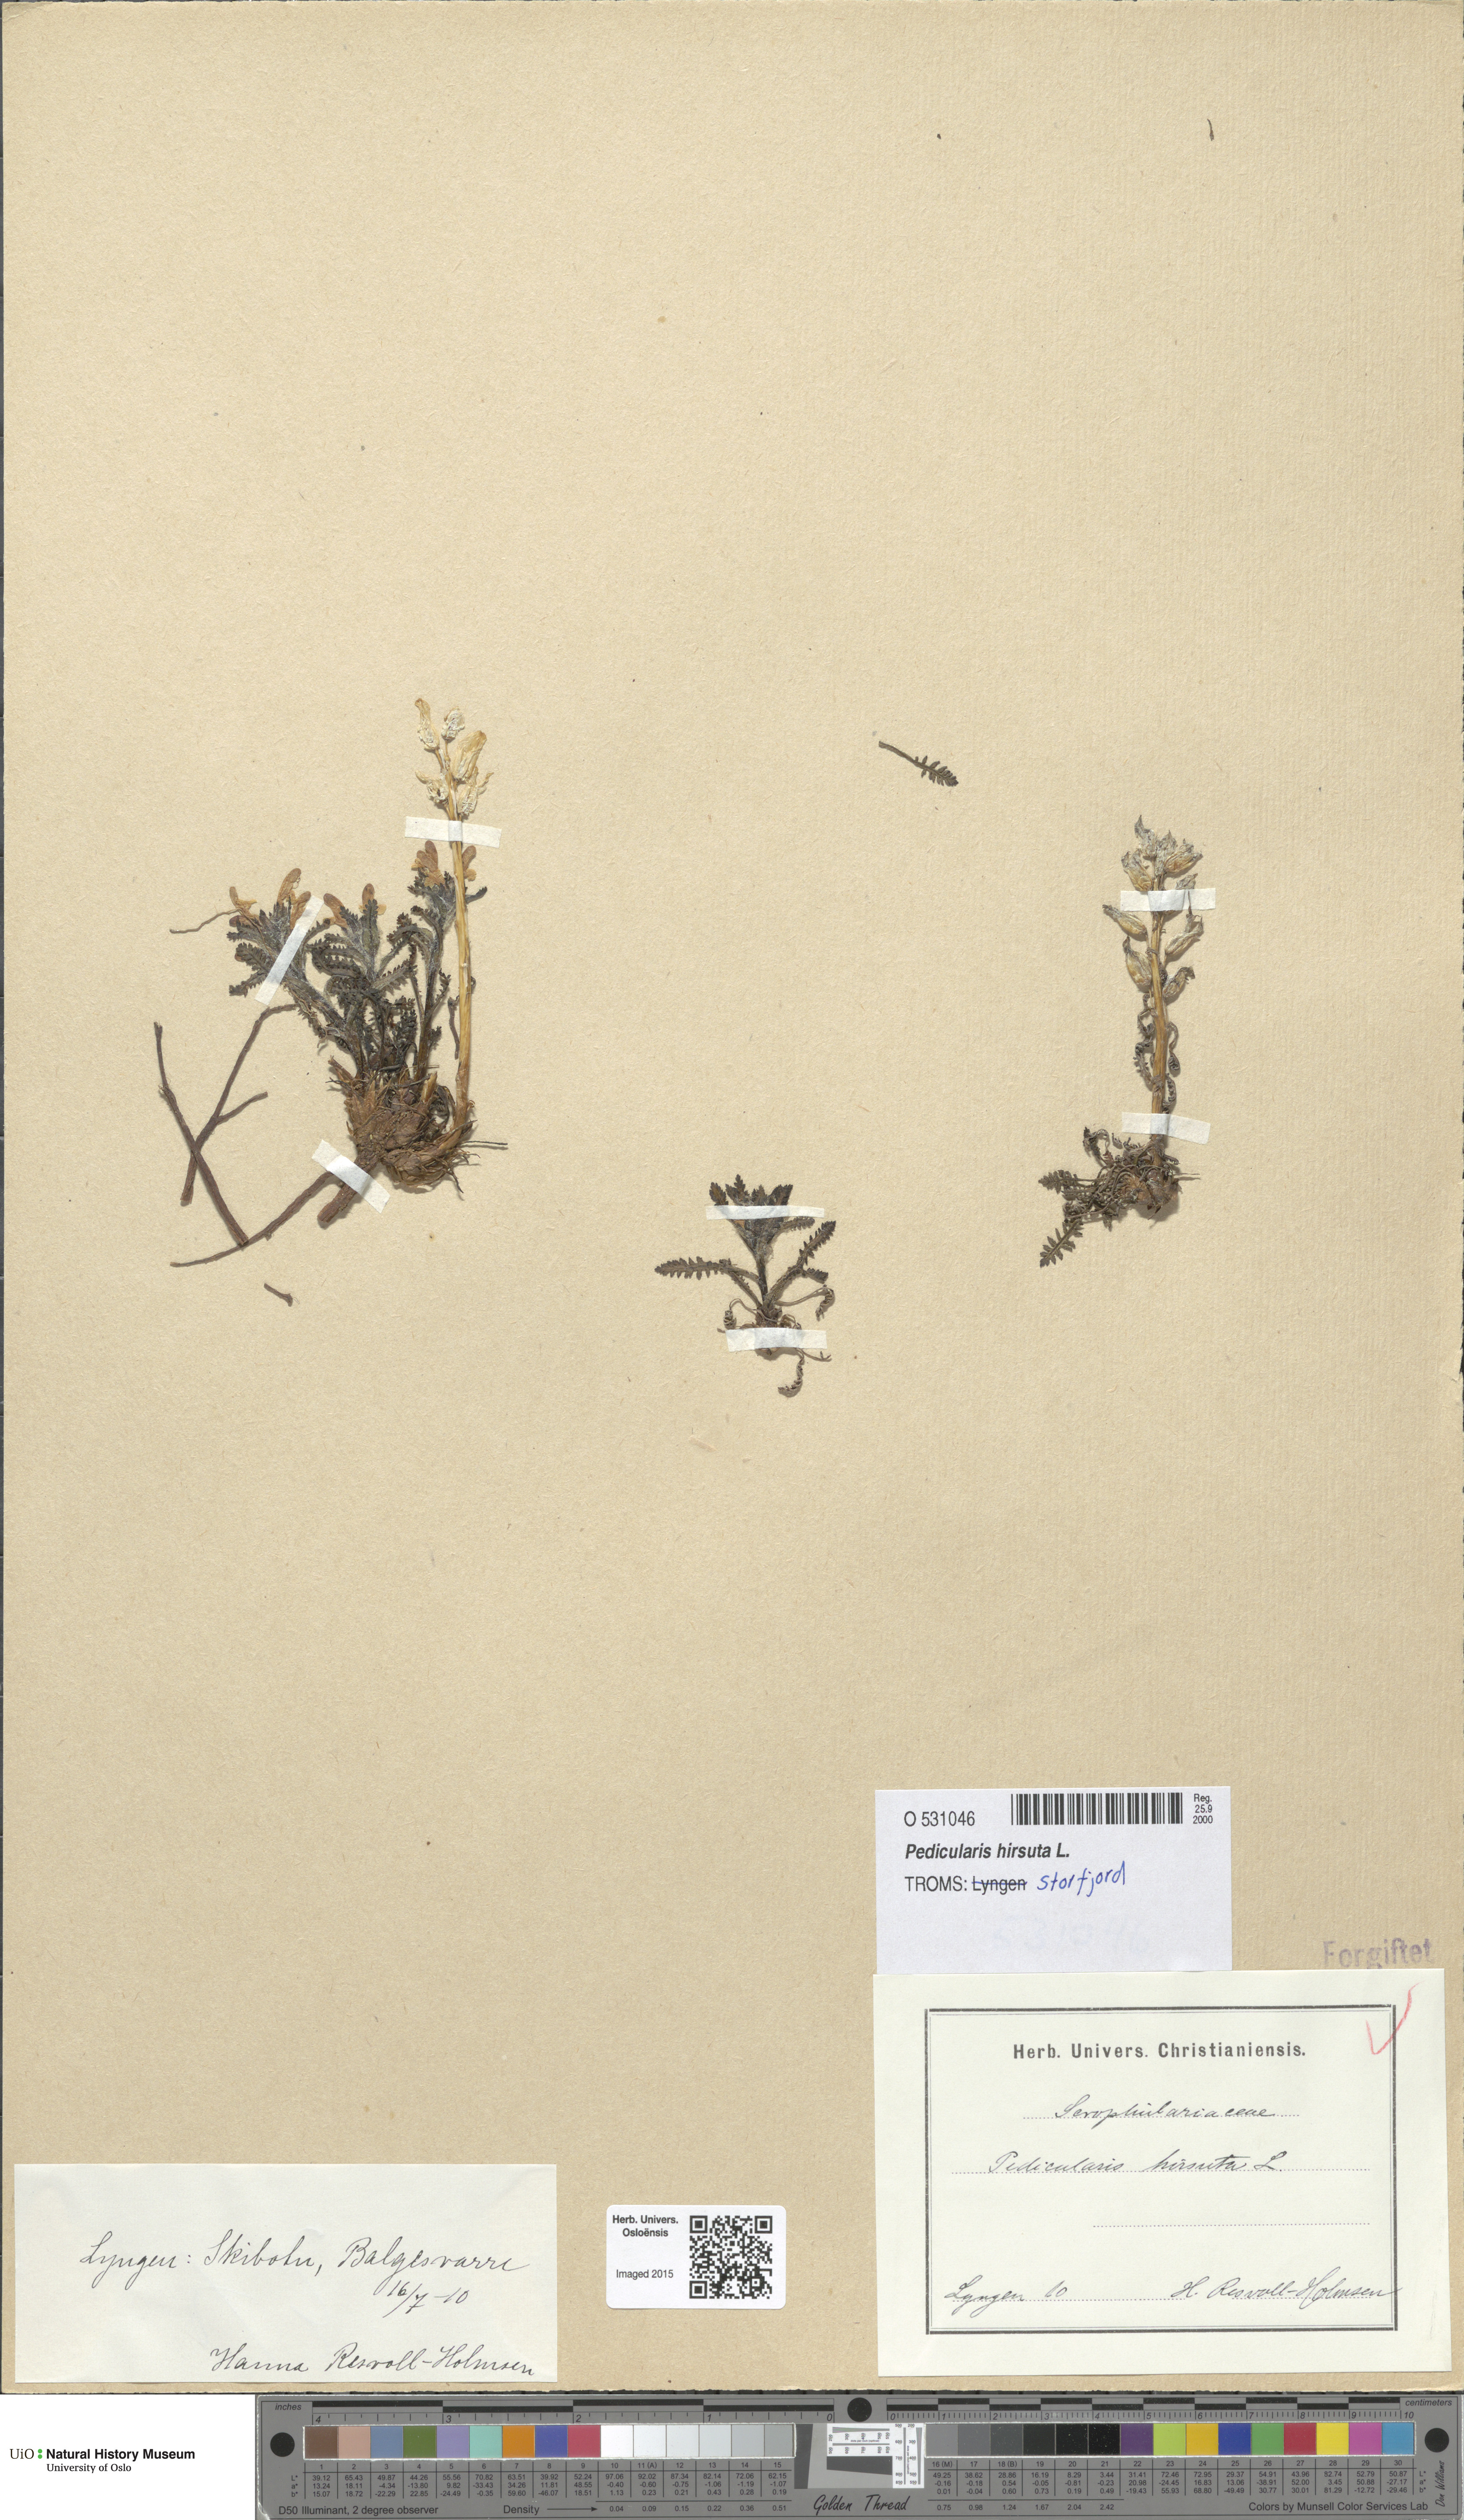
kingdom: Plantae
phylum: Tracheophyta
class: Magnoliopsida
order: Lamiales
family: Orobanchaceae
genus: Pedicularis
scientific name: Pedicularis hirsuta
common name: Hairy lousewort
